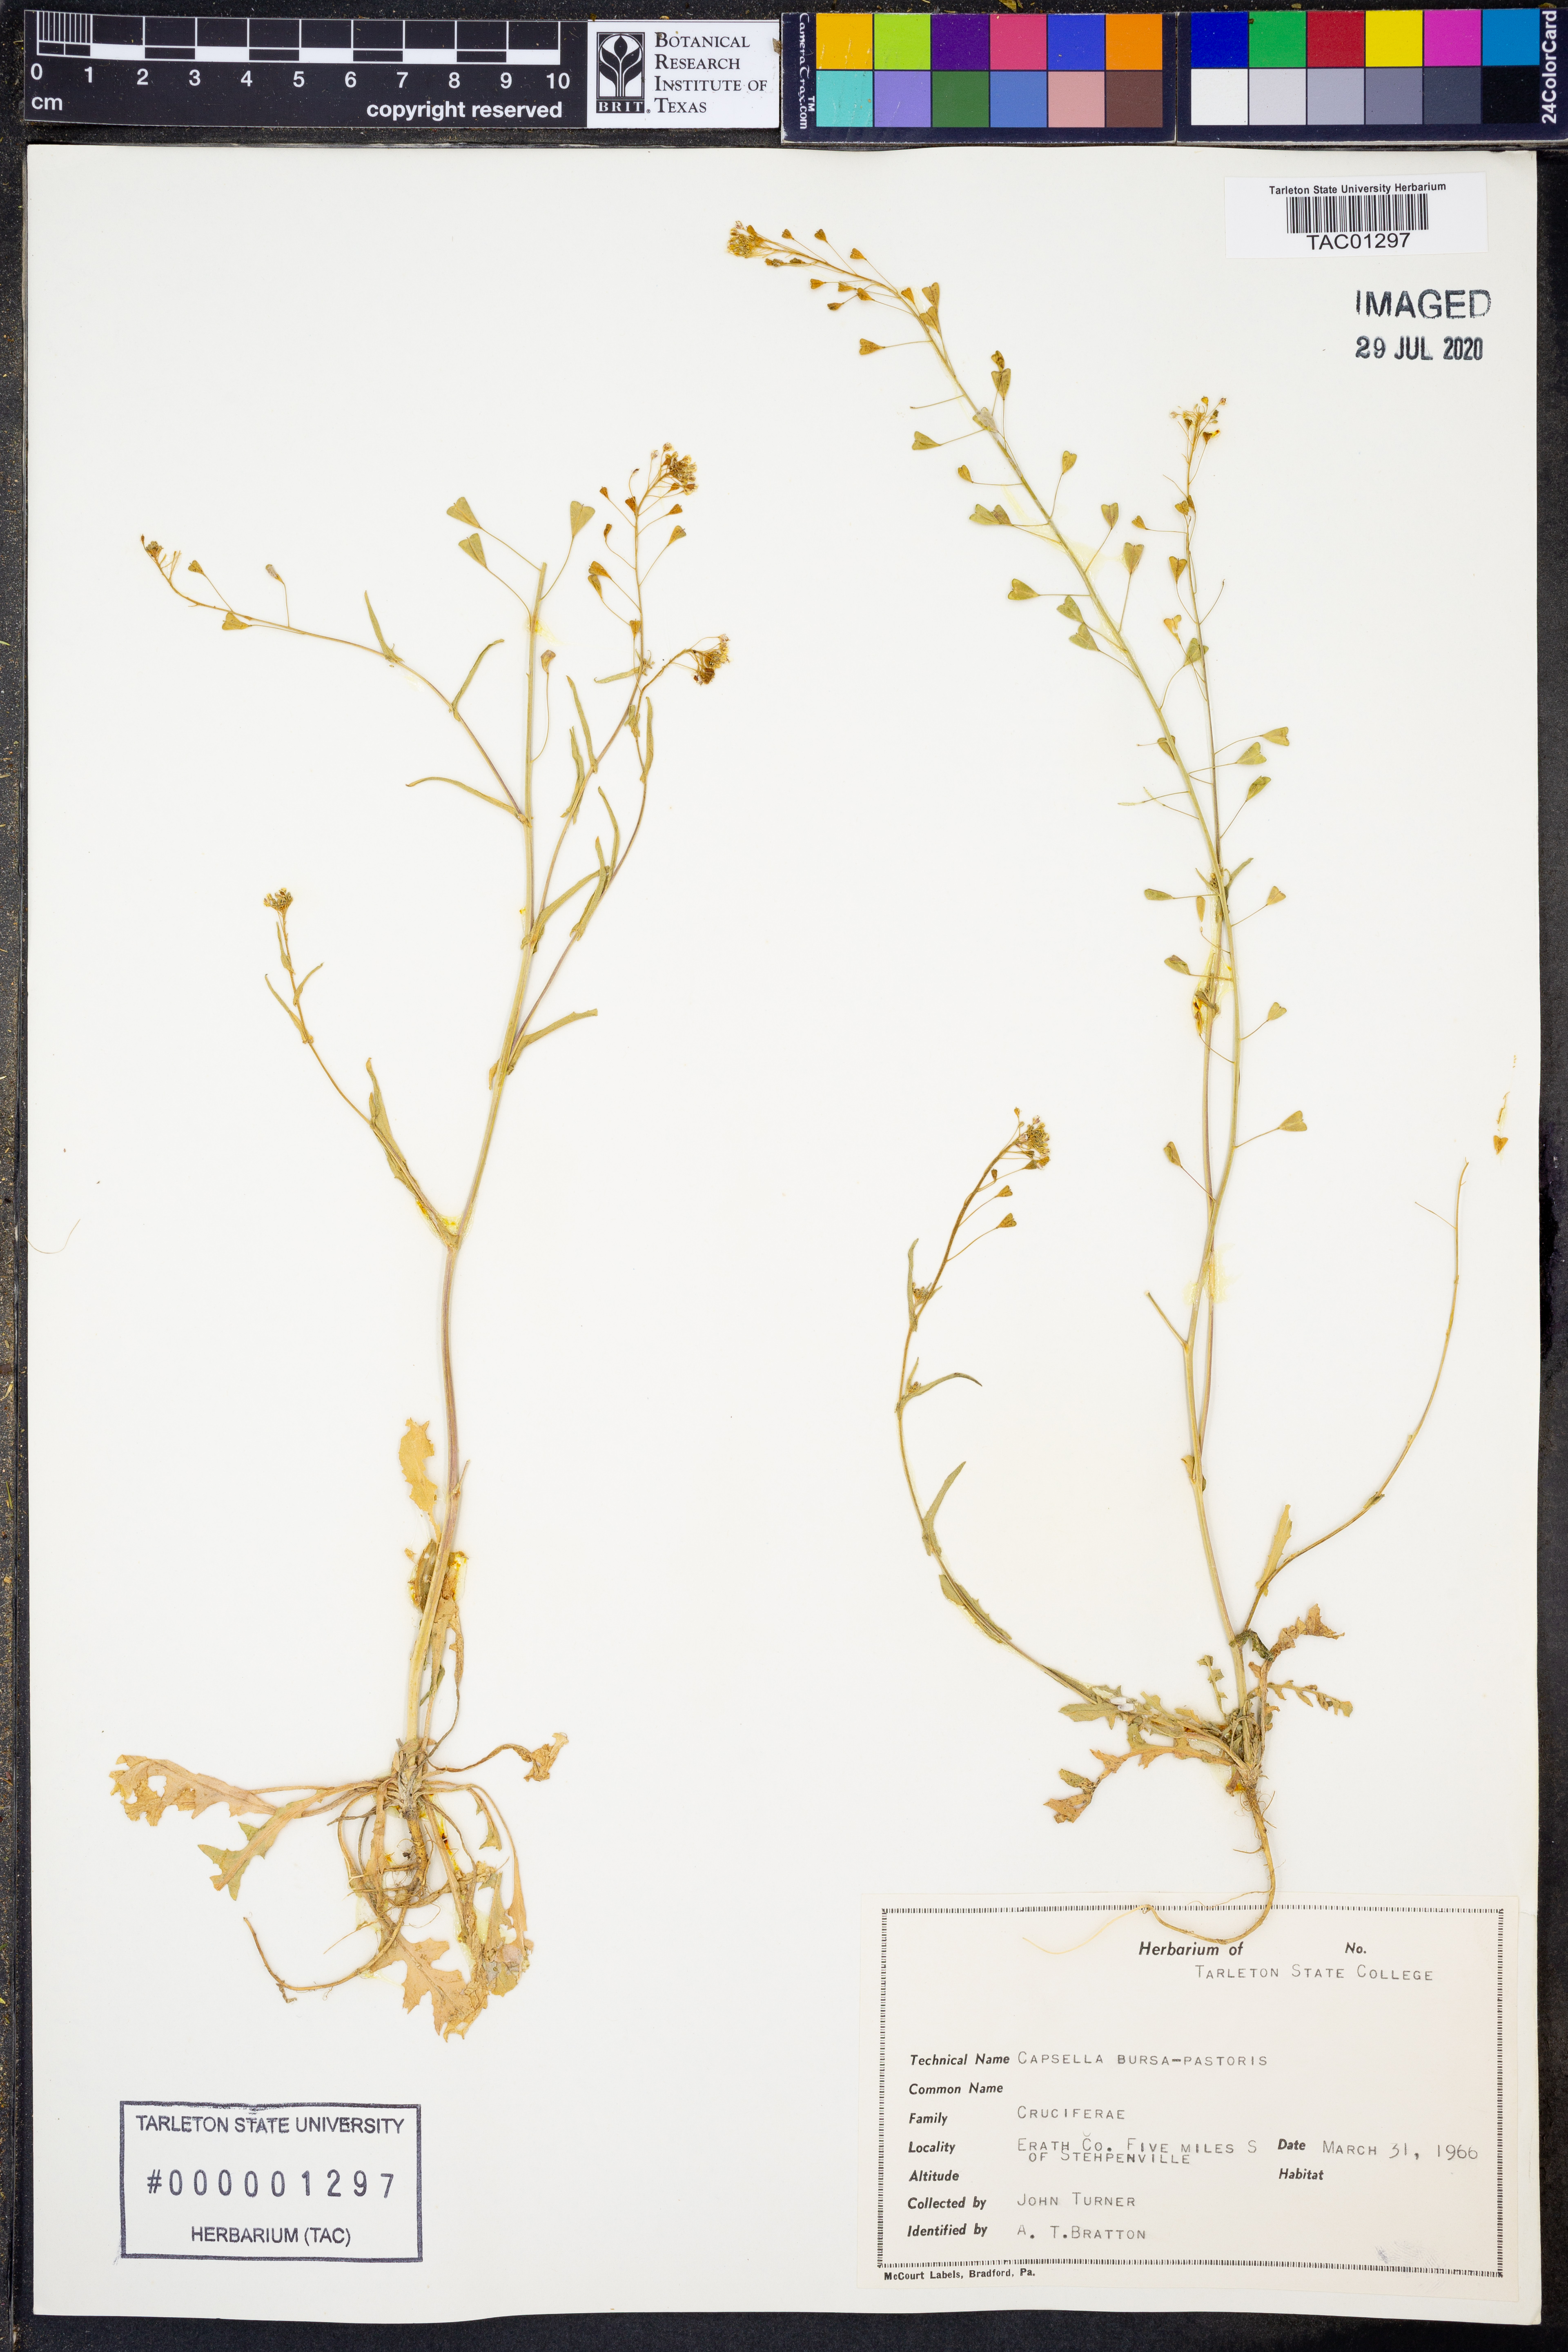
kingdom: Plantae
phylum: Tracheophyta
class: Magnoliopsida
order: Brassicales
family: Brassicaceae
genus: Capsella
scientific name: Capsella bursa-pastoris
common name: Shepherd's purse
